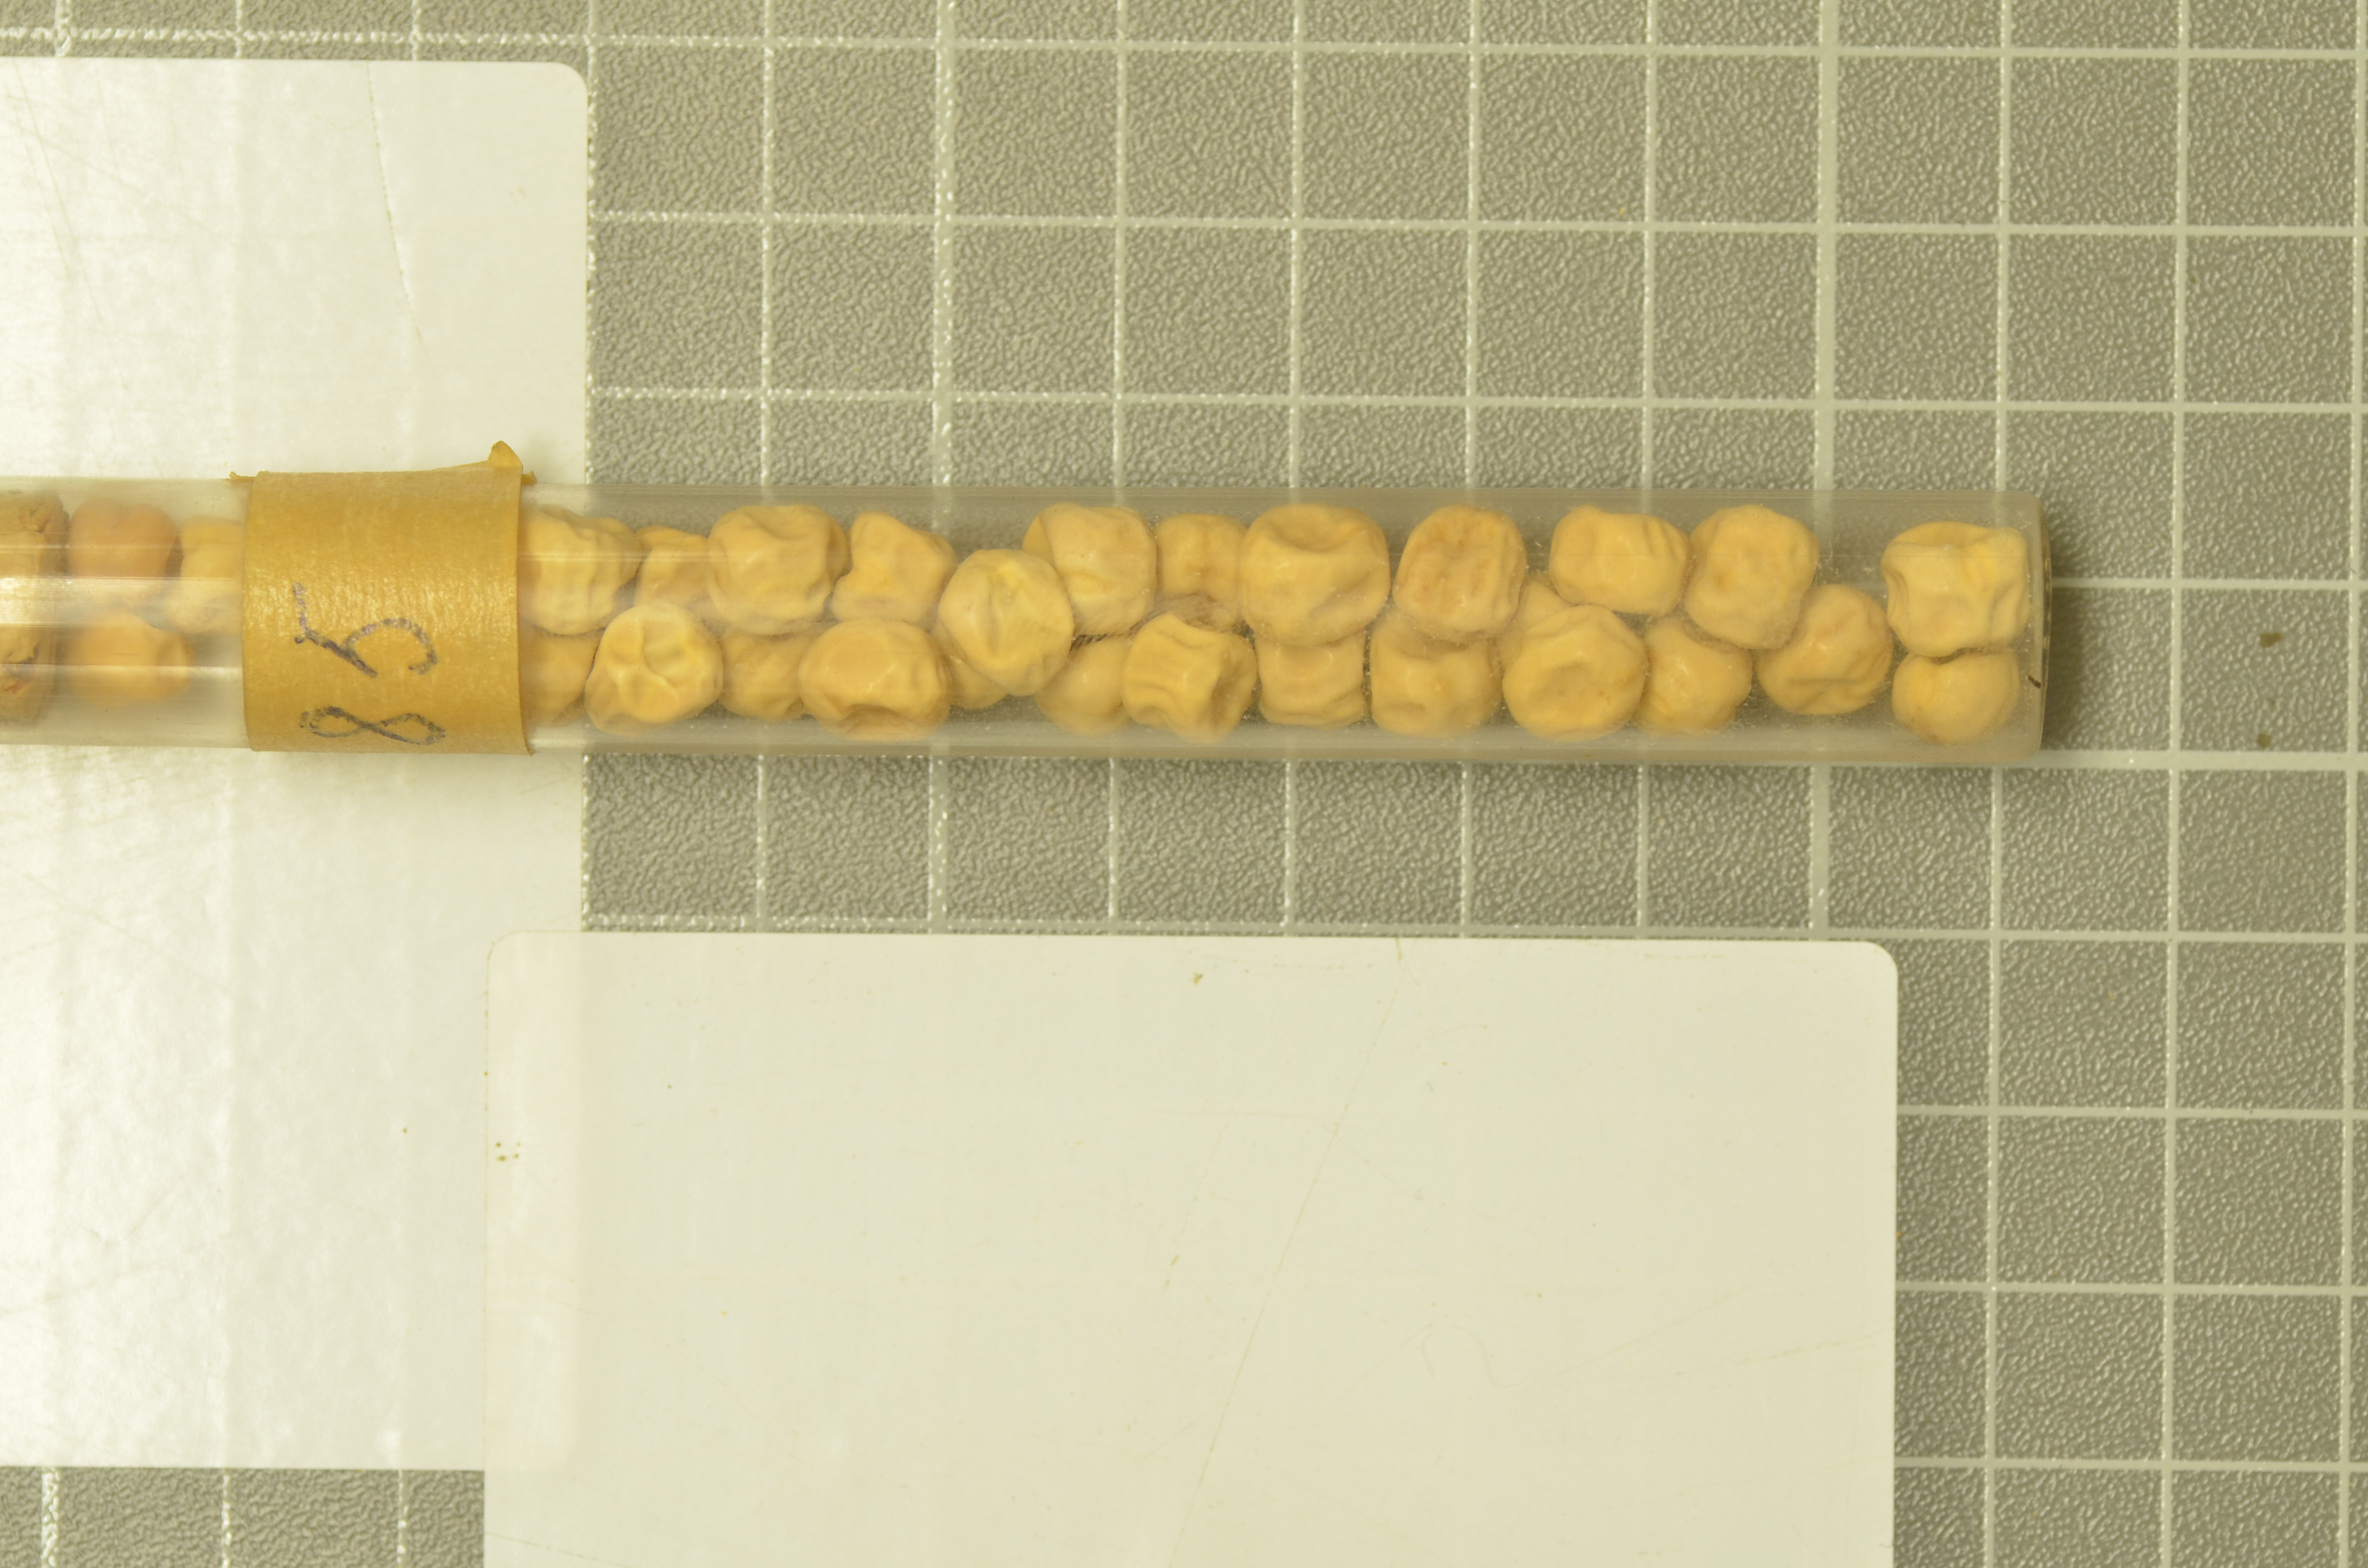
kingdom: Plantae
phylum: Tracheophyta
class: Magnoliopsida
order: Fabales
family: Fabaceae
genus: Lathyrus
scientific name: Lathyrus oleraceus
